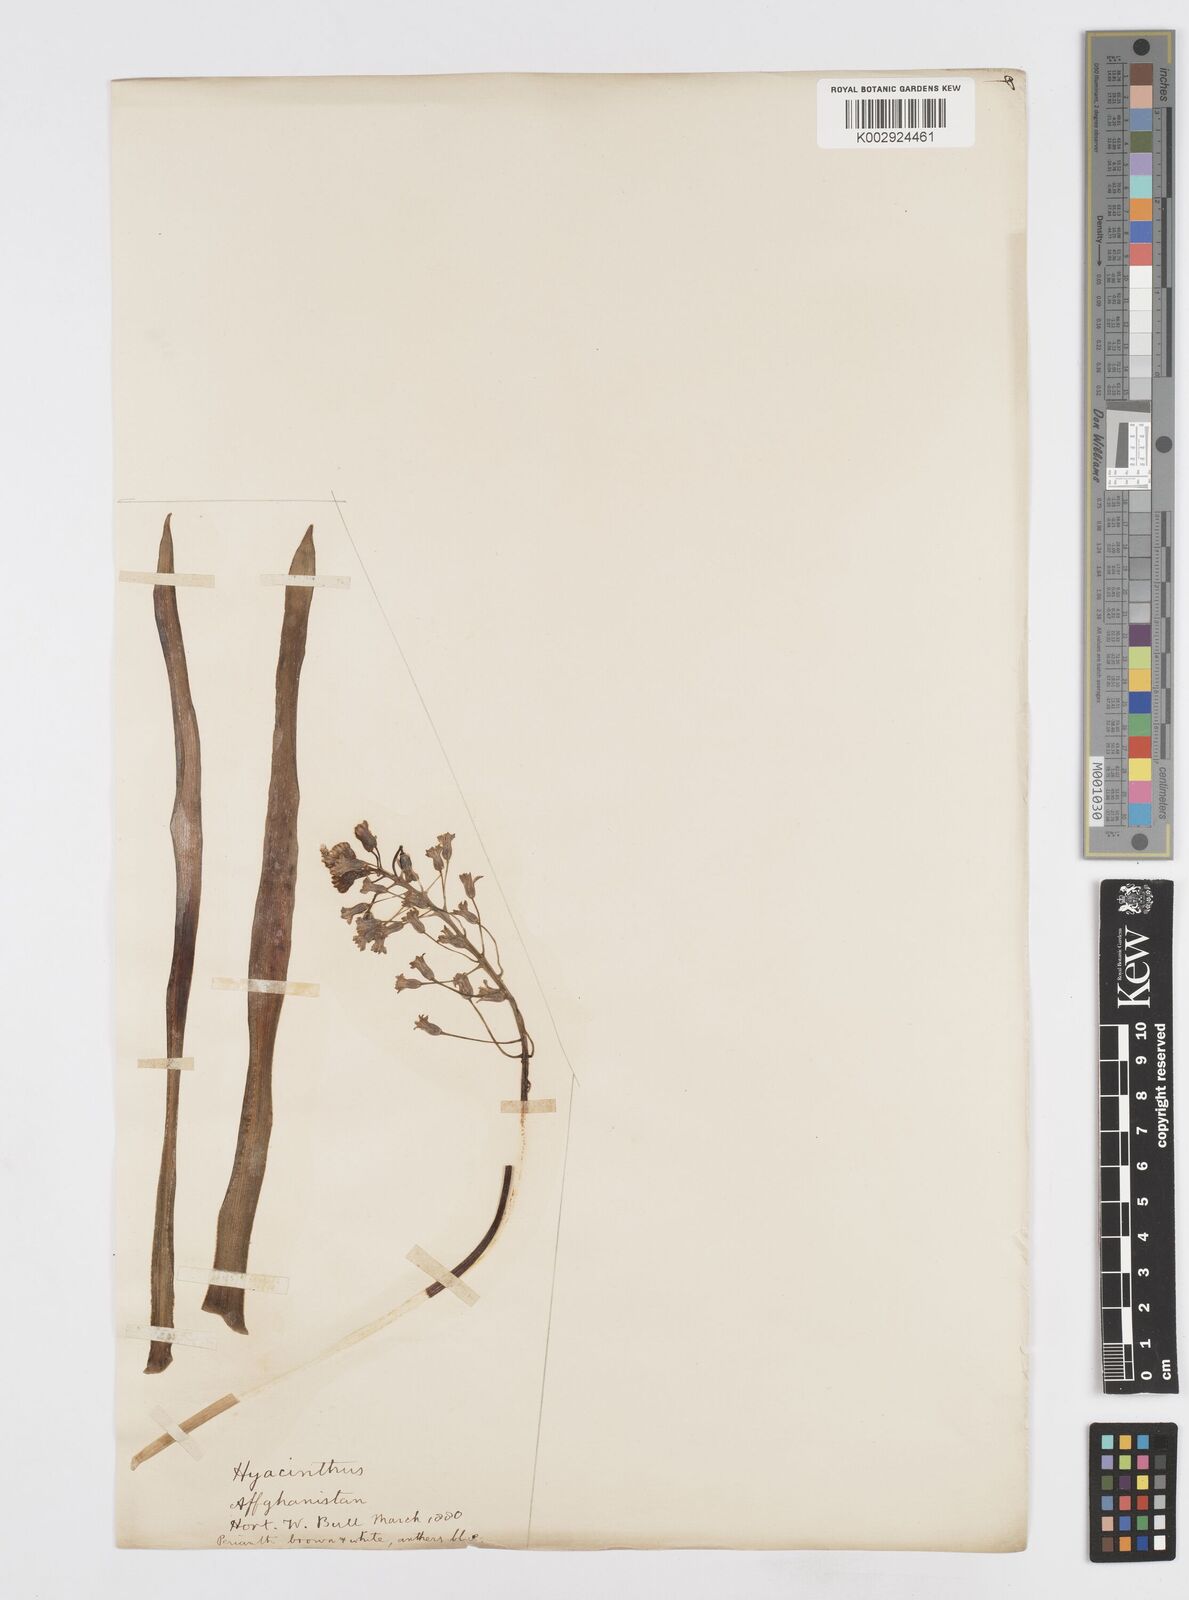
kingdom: Plantae
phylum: Tracheophyta
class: Liliopsida
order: Asparagales
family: Asparagaceae
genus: Bellevalia
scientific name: Bellevalia saviczii
